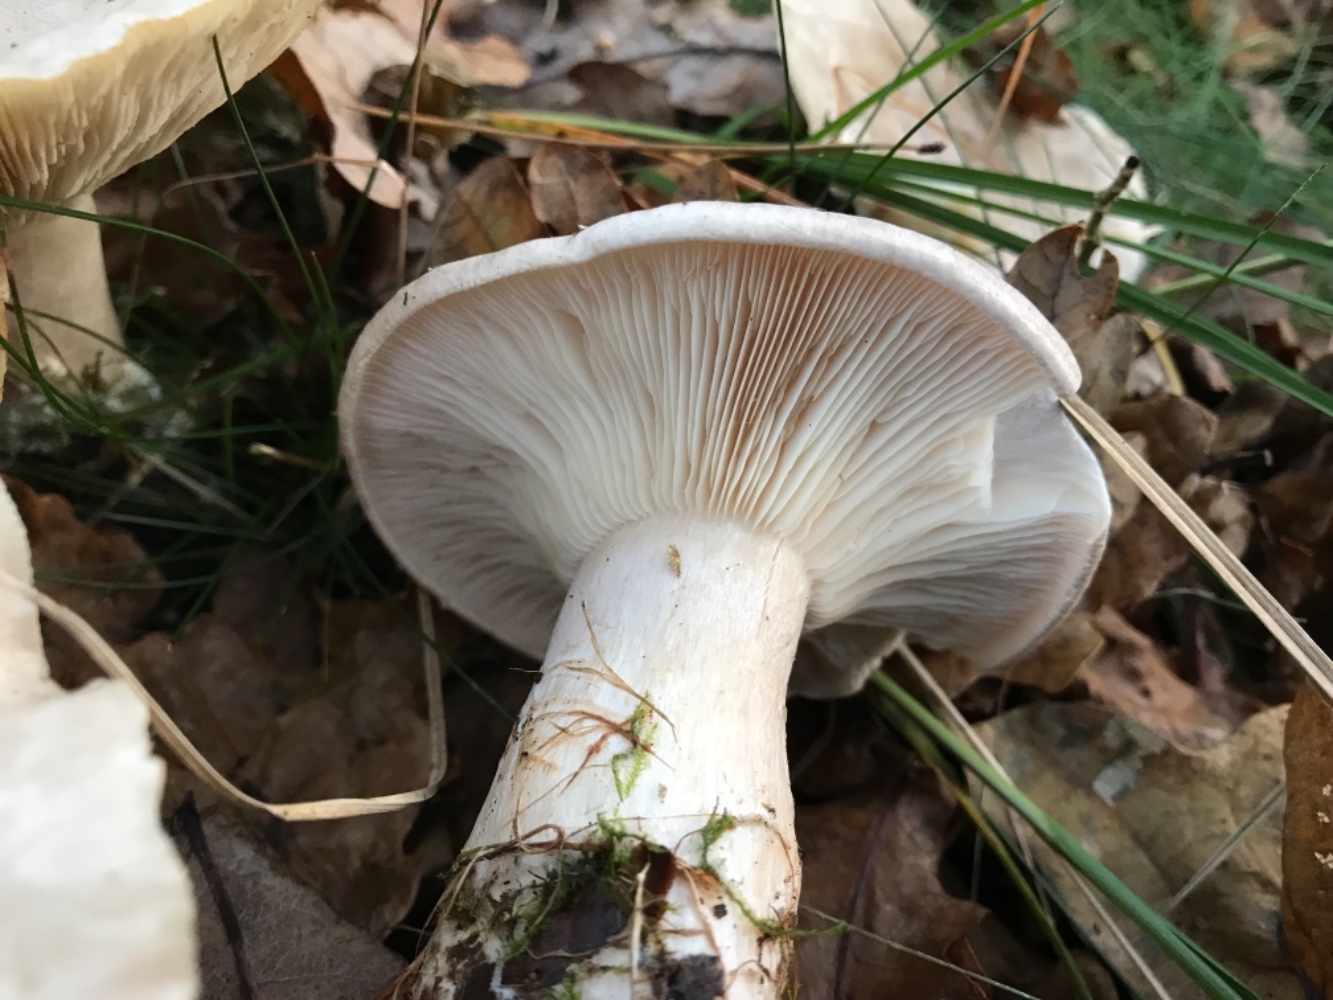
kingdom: Fungi
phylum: Basidiomycota
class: Agaricomycetes
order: Agaricales
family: Tricholomataceae
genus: Clitocybe
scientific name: Clitocybe nebularis
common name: tåge-tragthat
